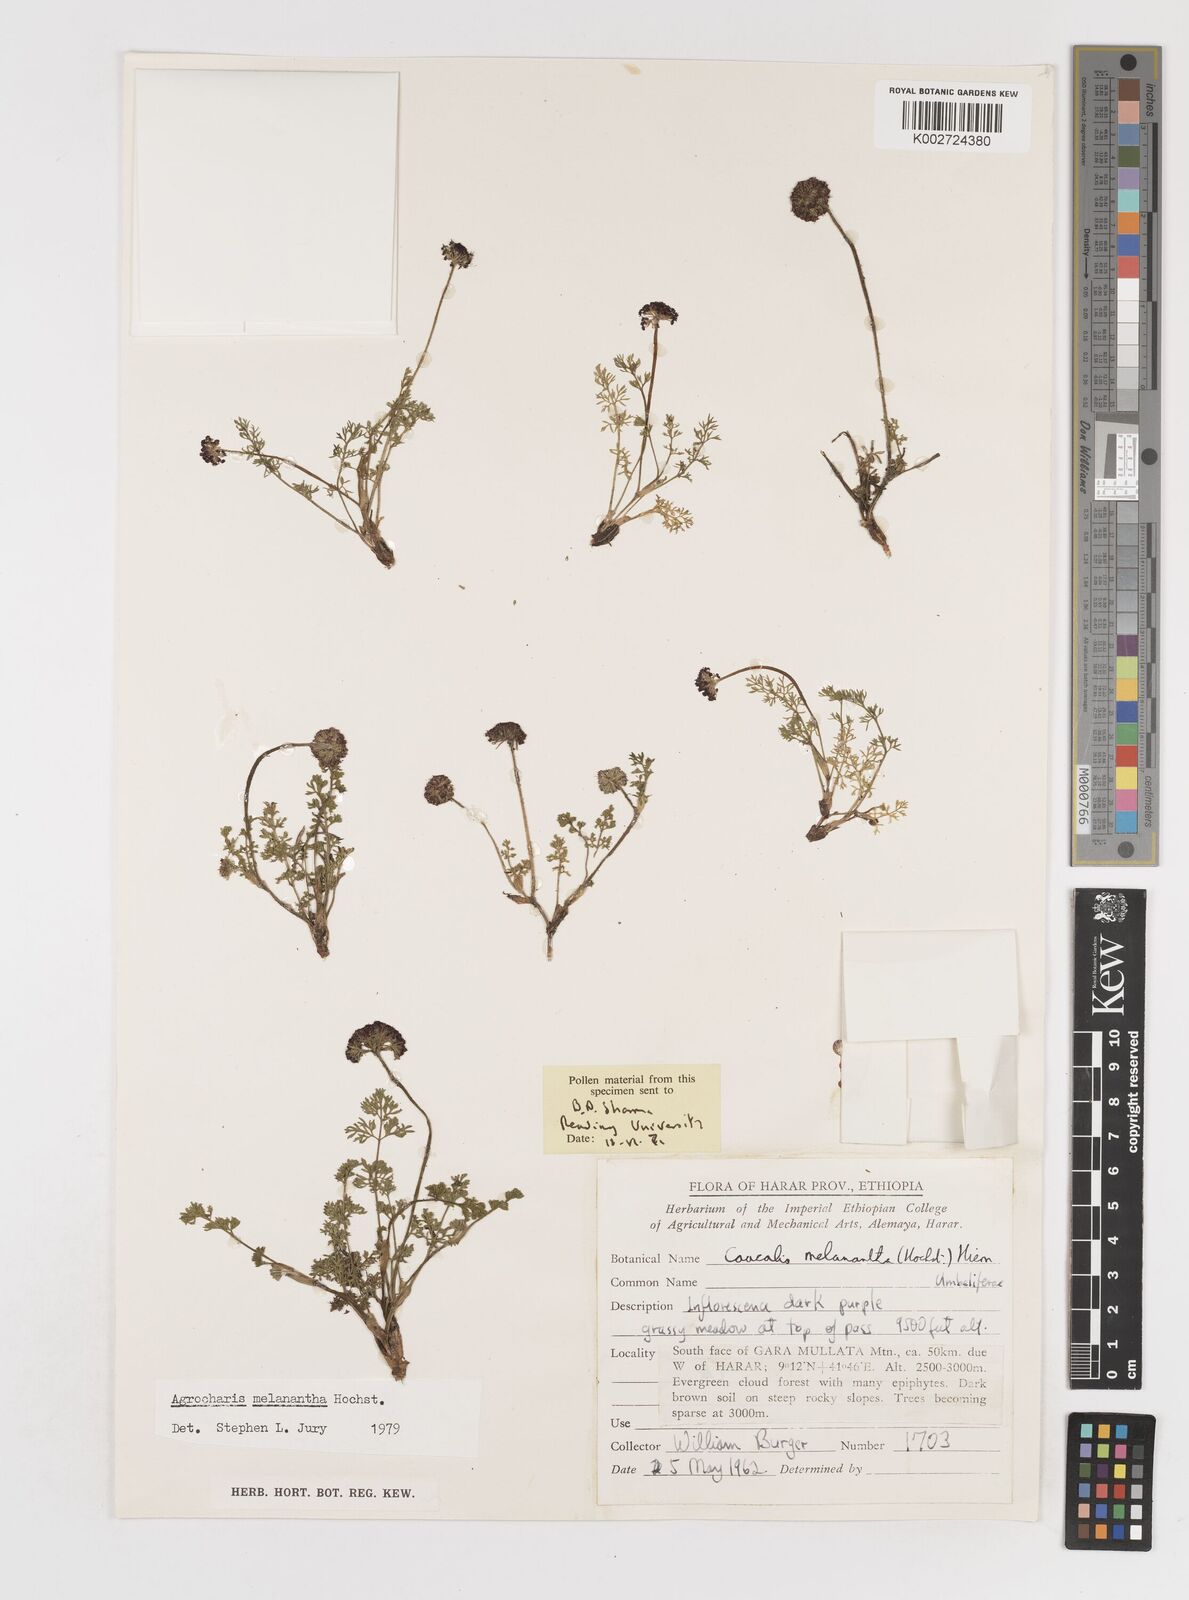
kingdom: Plantae
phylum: Tracheophyta
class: Magnoliopsida
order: Apiales
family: Apiaceae
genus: Daucus
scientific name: Daucus melananthus
